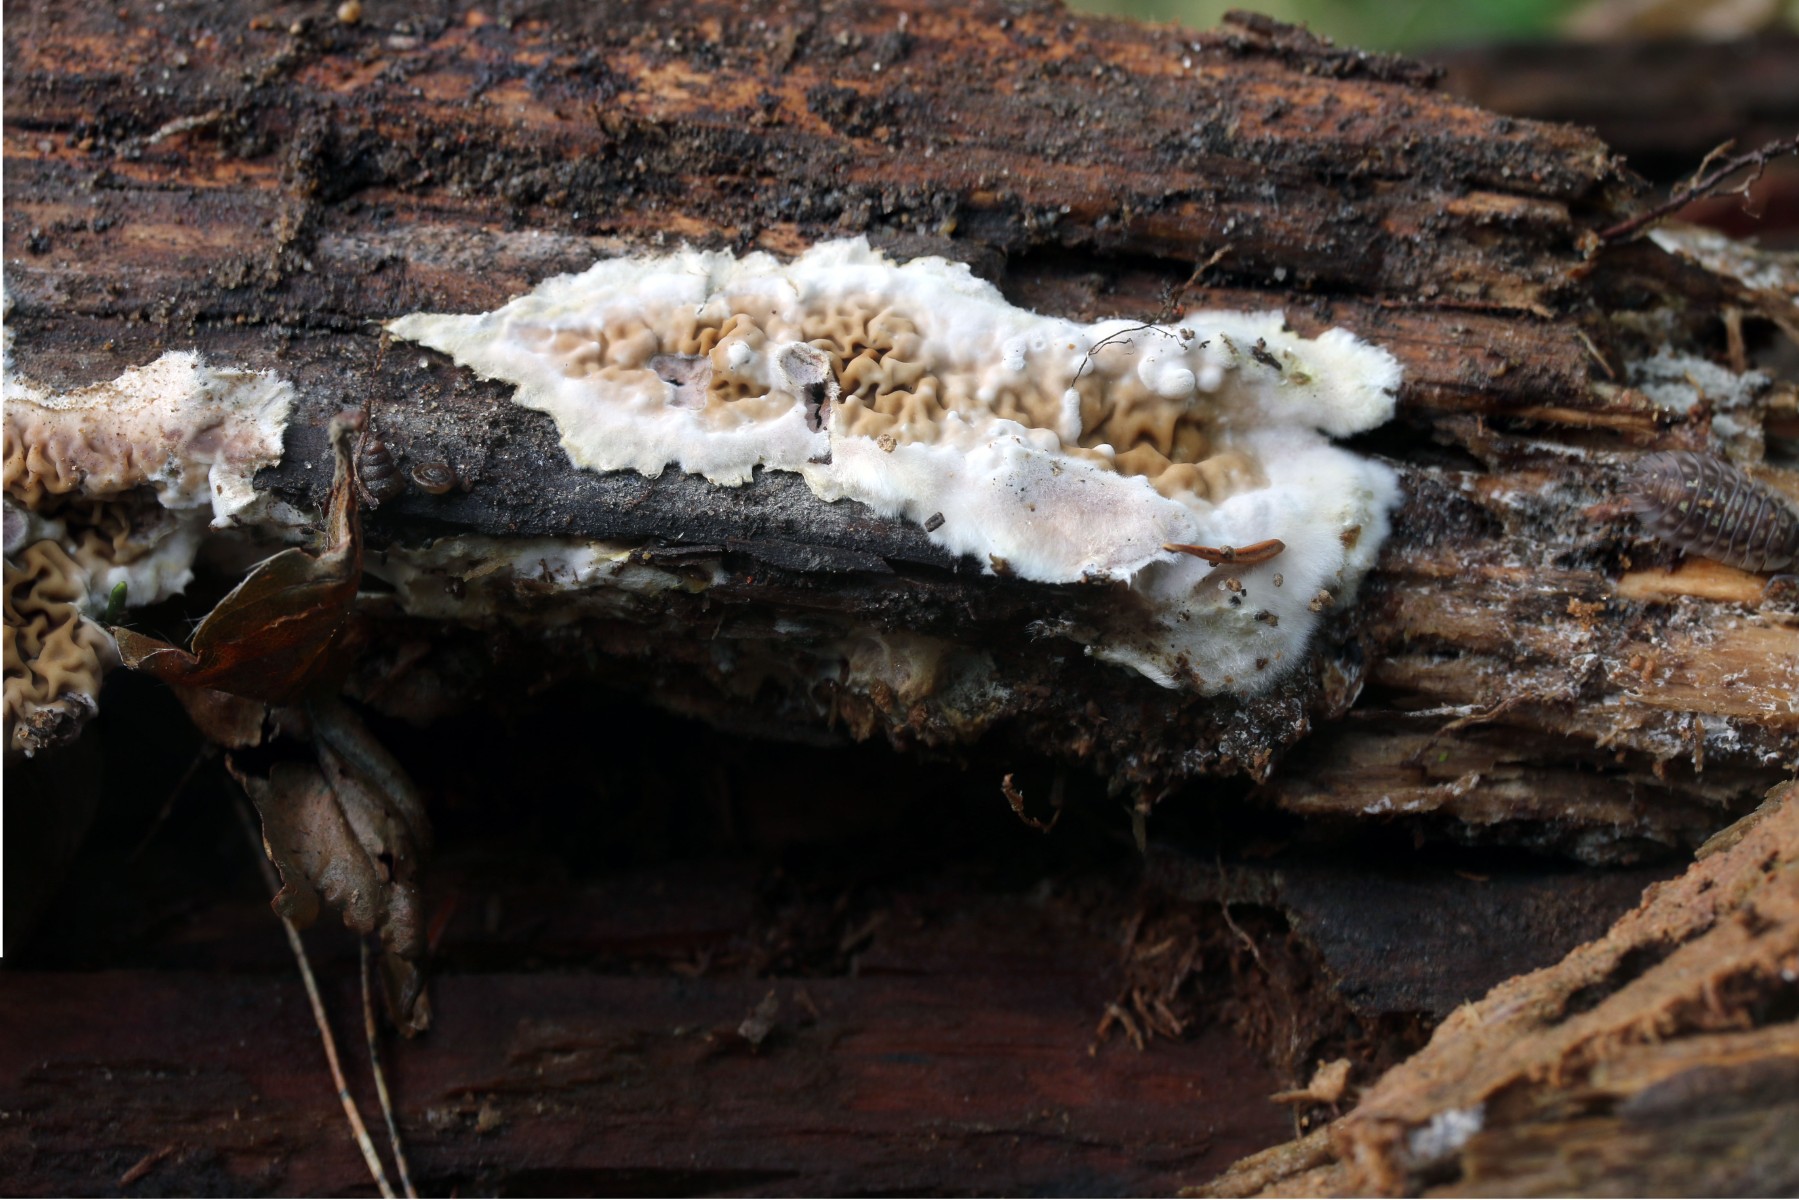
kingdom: Fungi
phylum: Basidiomycota
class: Agaricomycetes
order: Boletales
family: Serpulaceae
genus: Serpula
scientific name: Serpula himantioides
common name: tyndkødet hussvamp
